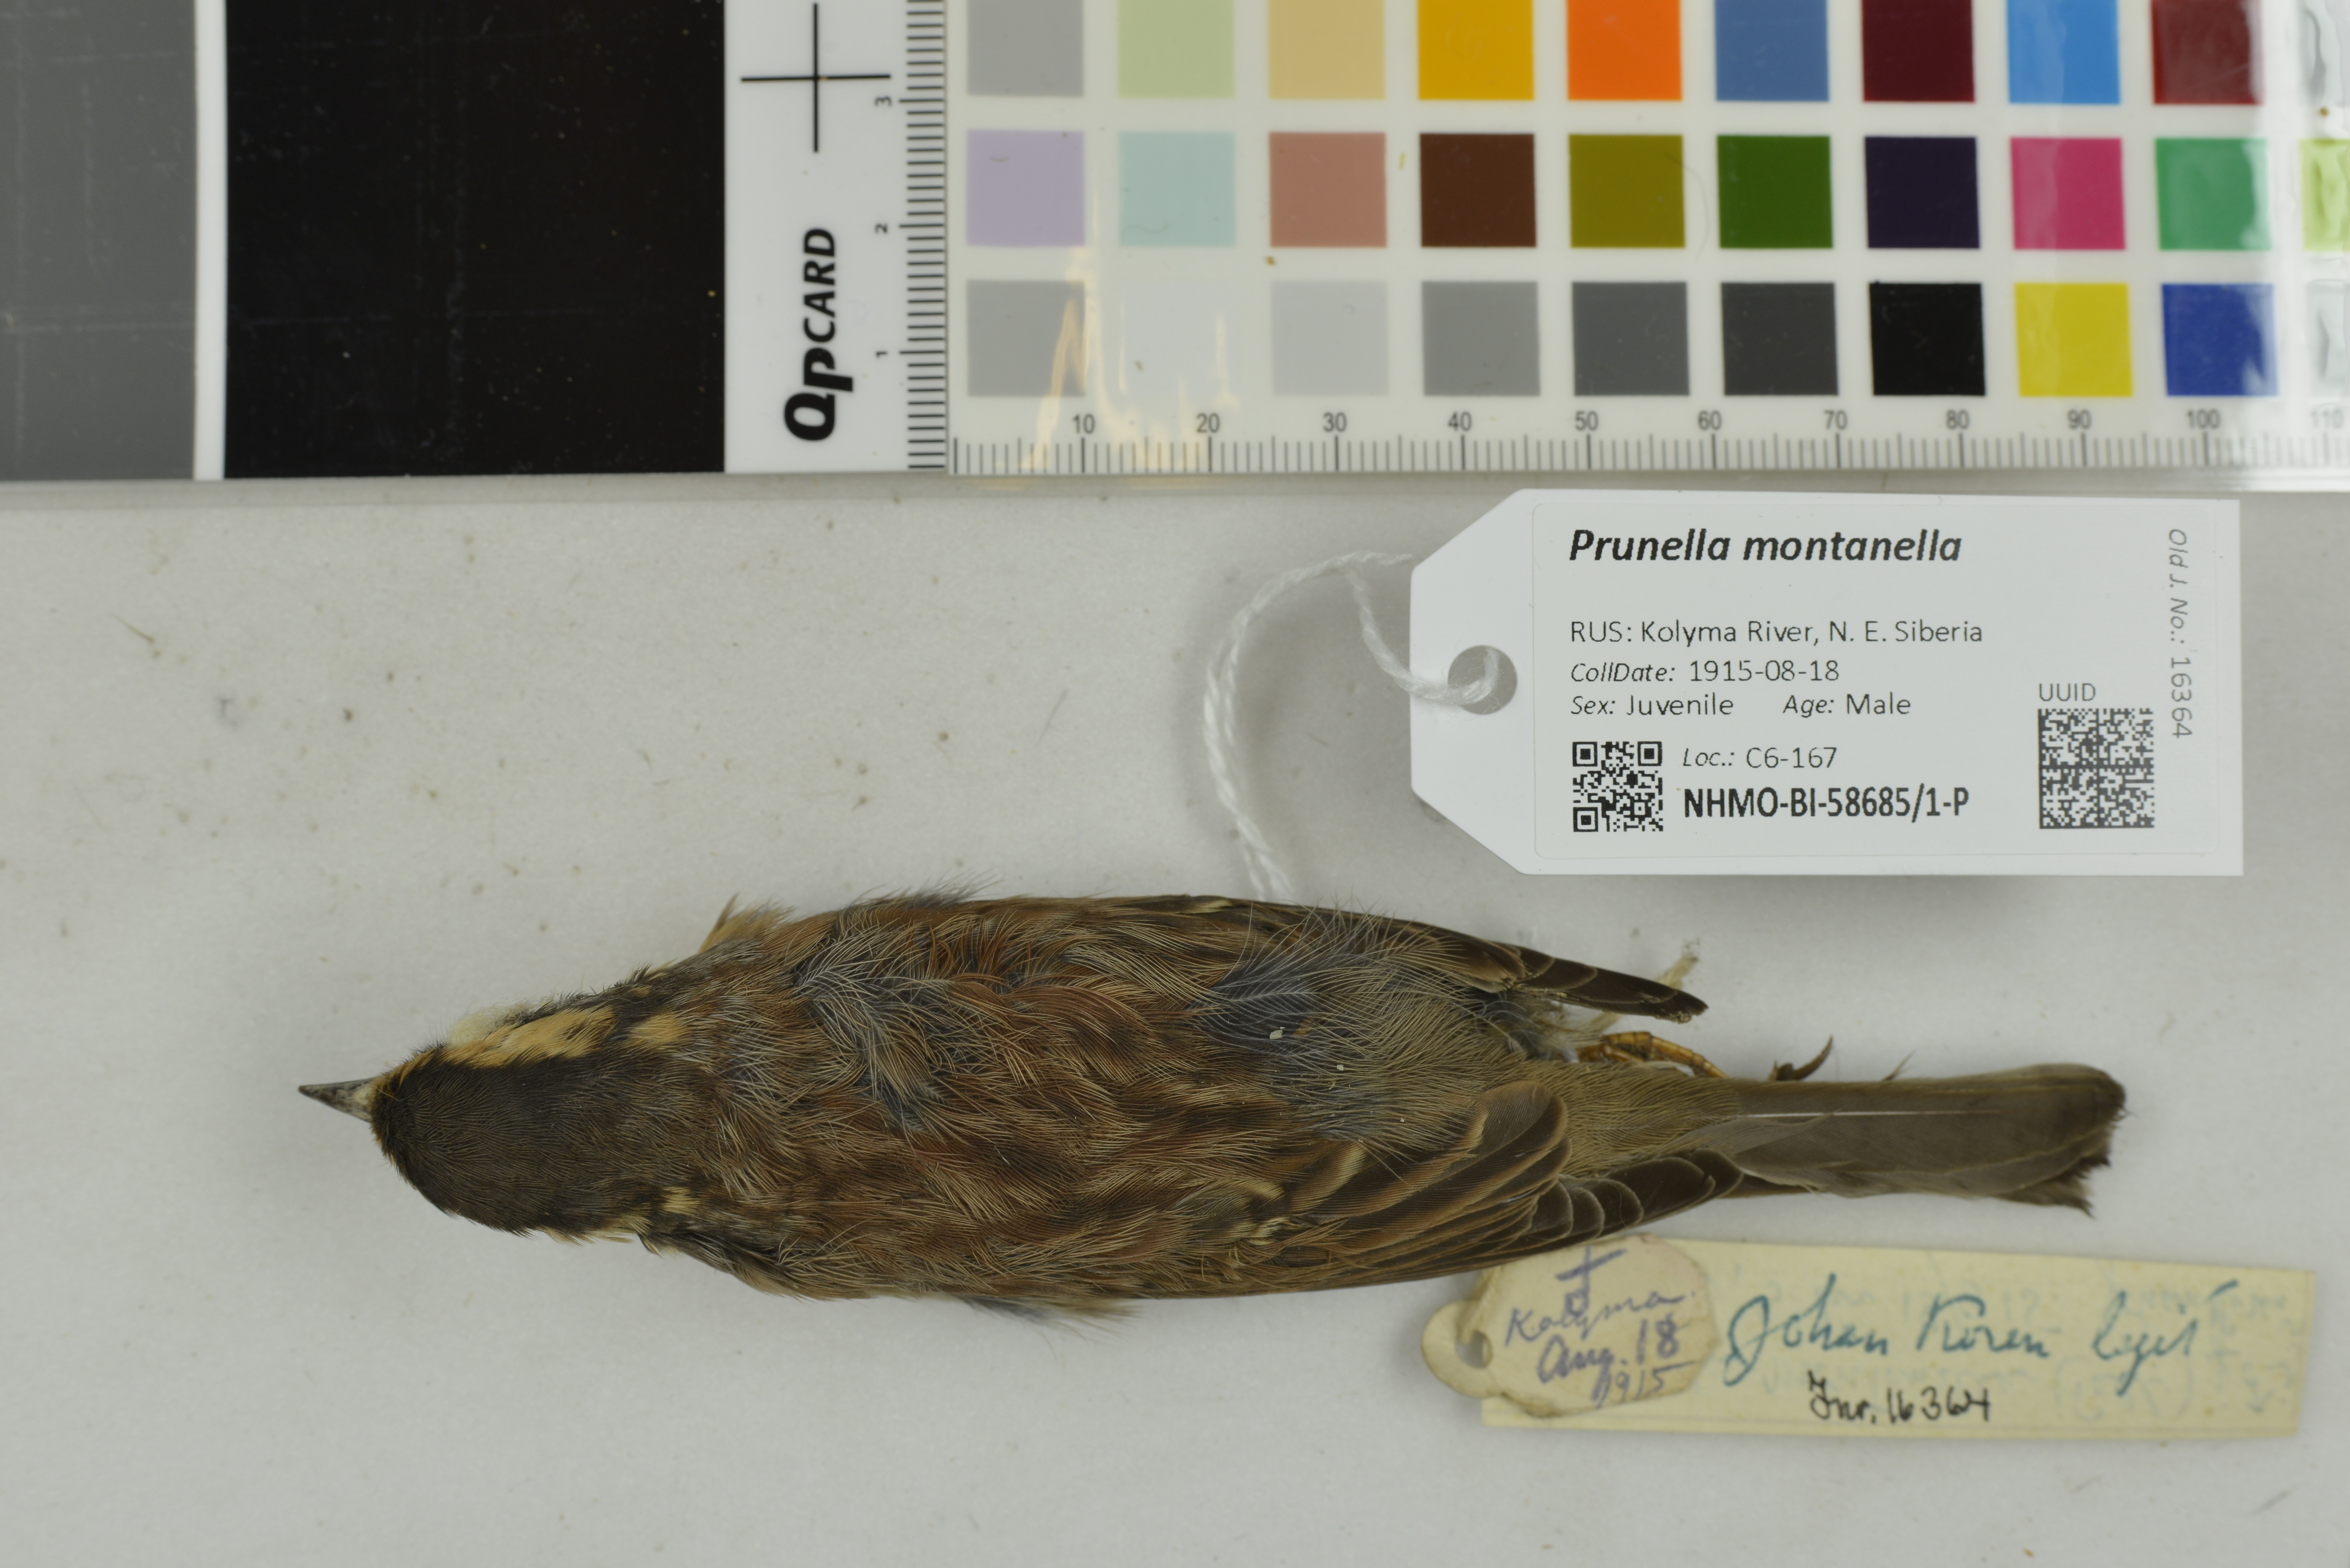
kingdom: Animalia
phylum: Chordata
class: Aves
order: Passeriformes
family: Prunellidae
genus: Prunella
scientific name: Prunella montanella
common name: Siberian accentor
